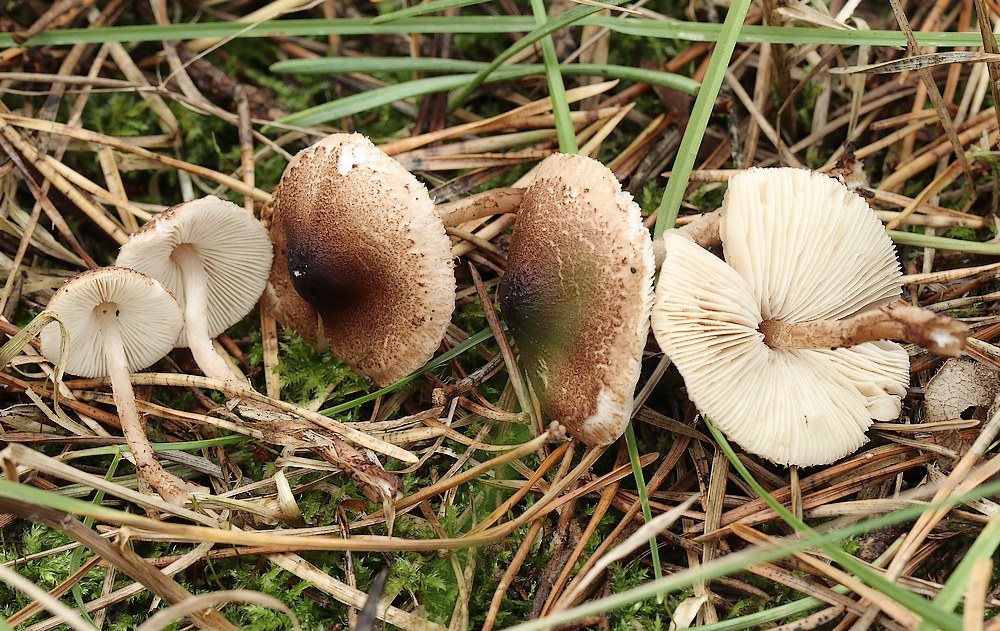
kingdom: Fungi
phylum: Basidiomycota
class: Agaricomycetes
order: Agaricales
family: Agaricaceae
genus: Lepiota
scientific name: Lepiota castanea
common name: kastaniebrun parasolhat
